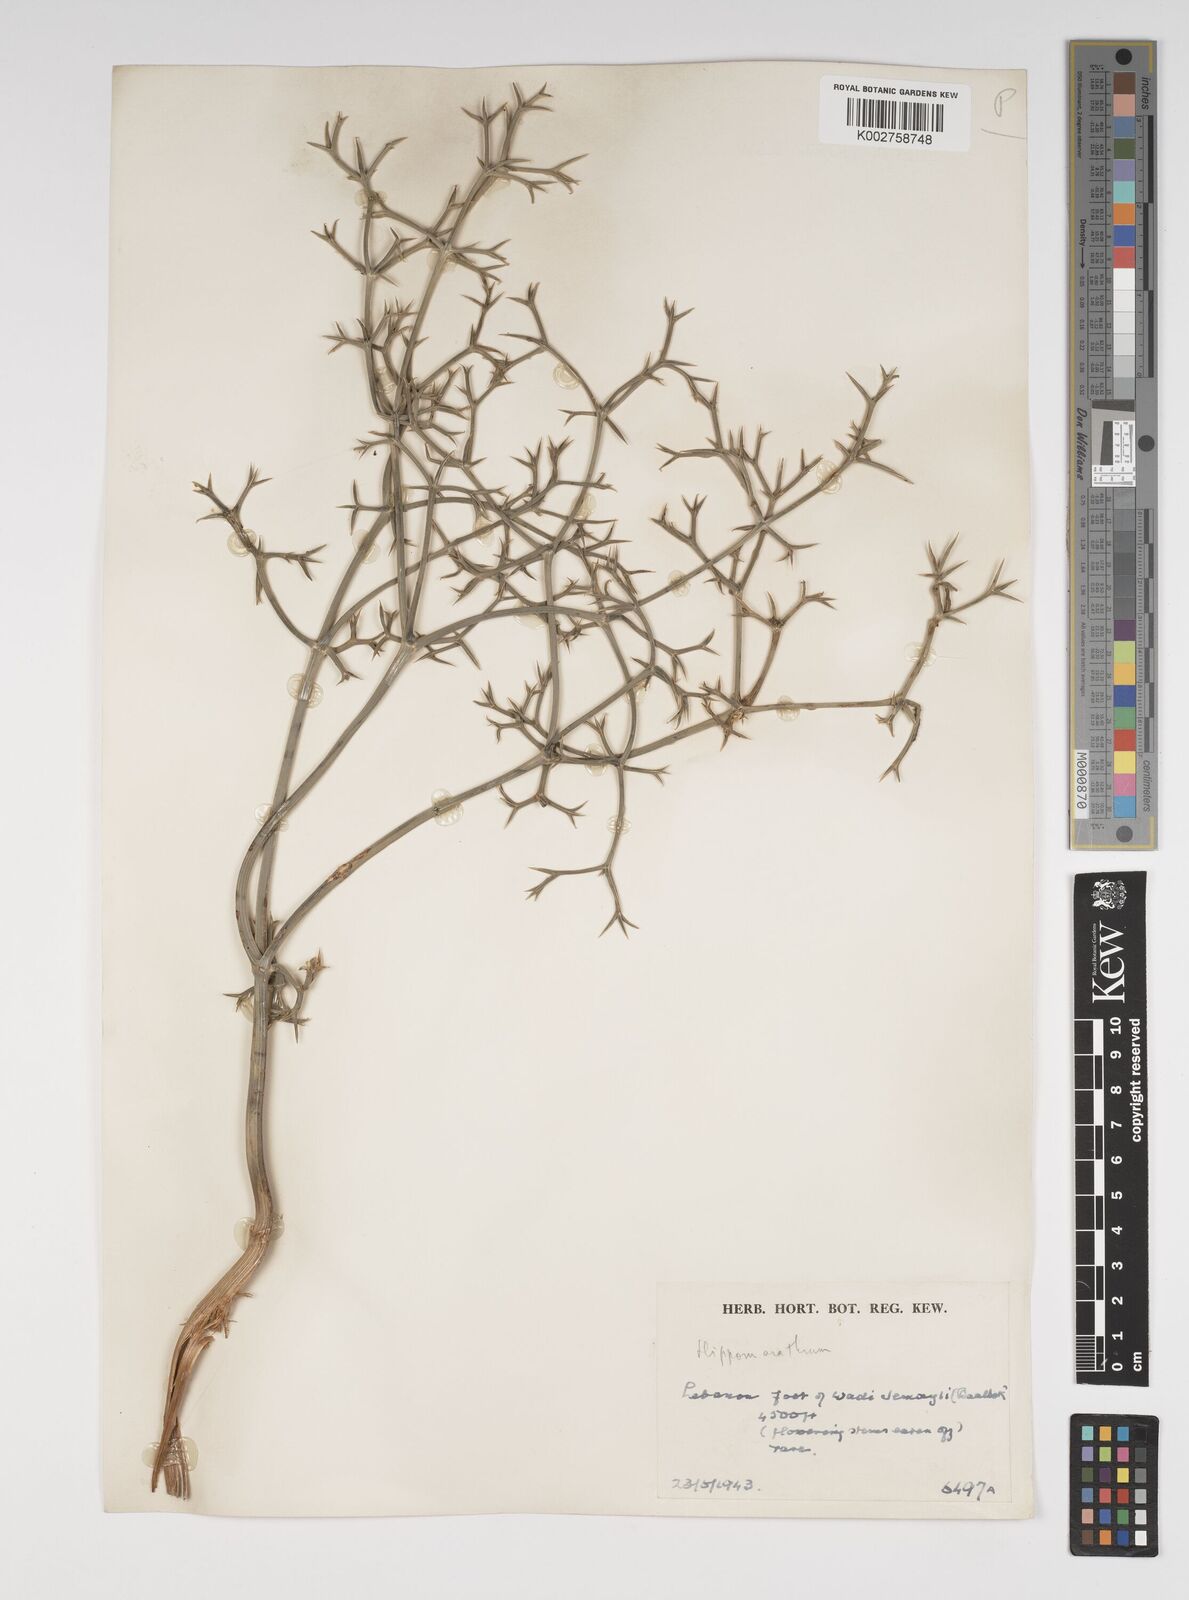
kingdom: Plantae
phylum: Tracheophyta
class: Magnoliopsida
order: Apiales
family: Apiaceae
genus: Cachrys
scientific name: Cachrys boissieri
